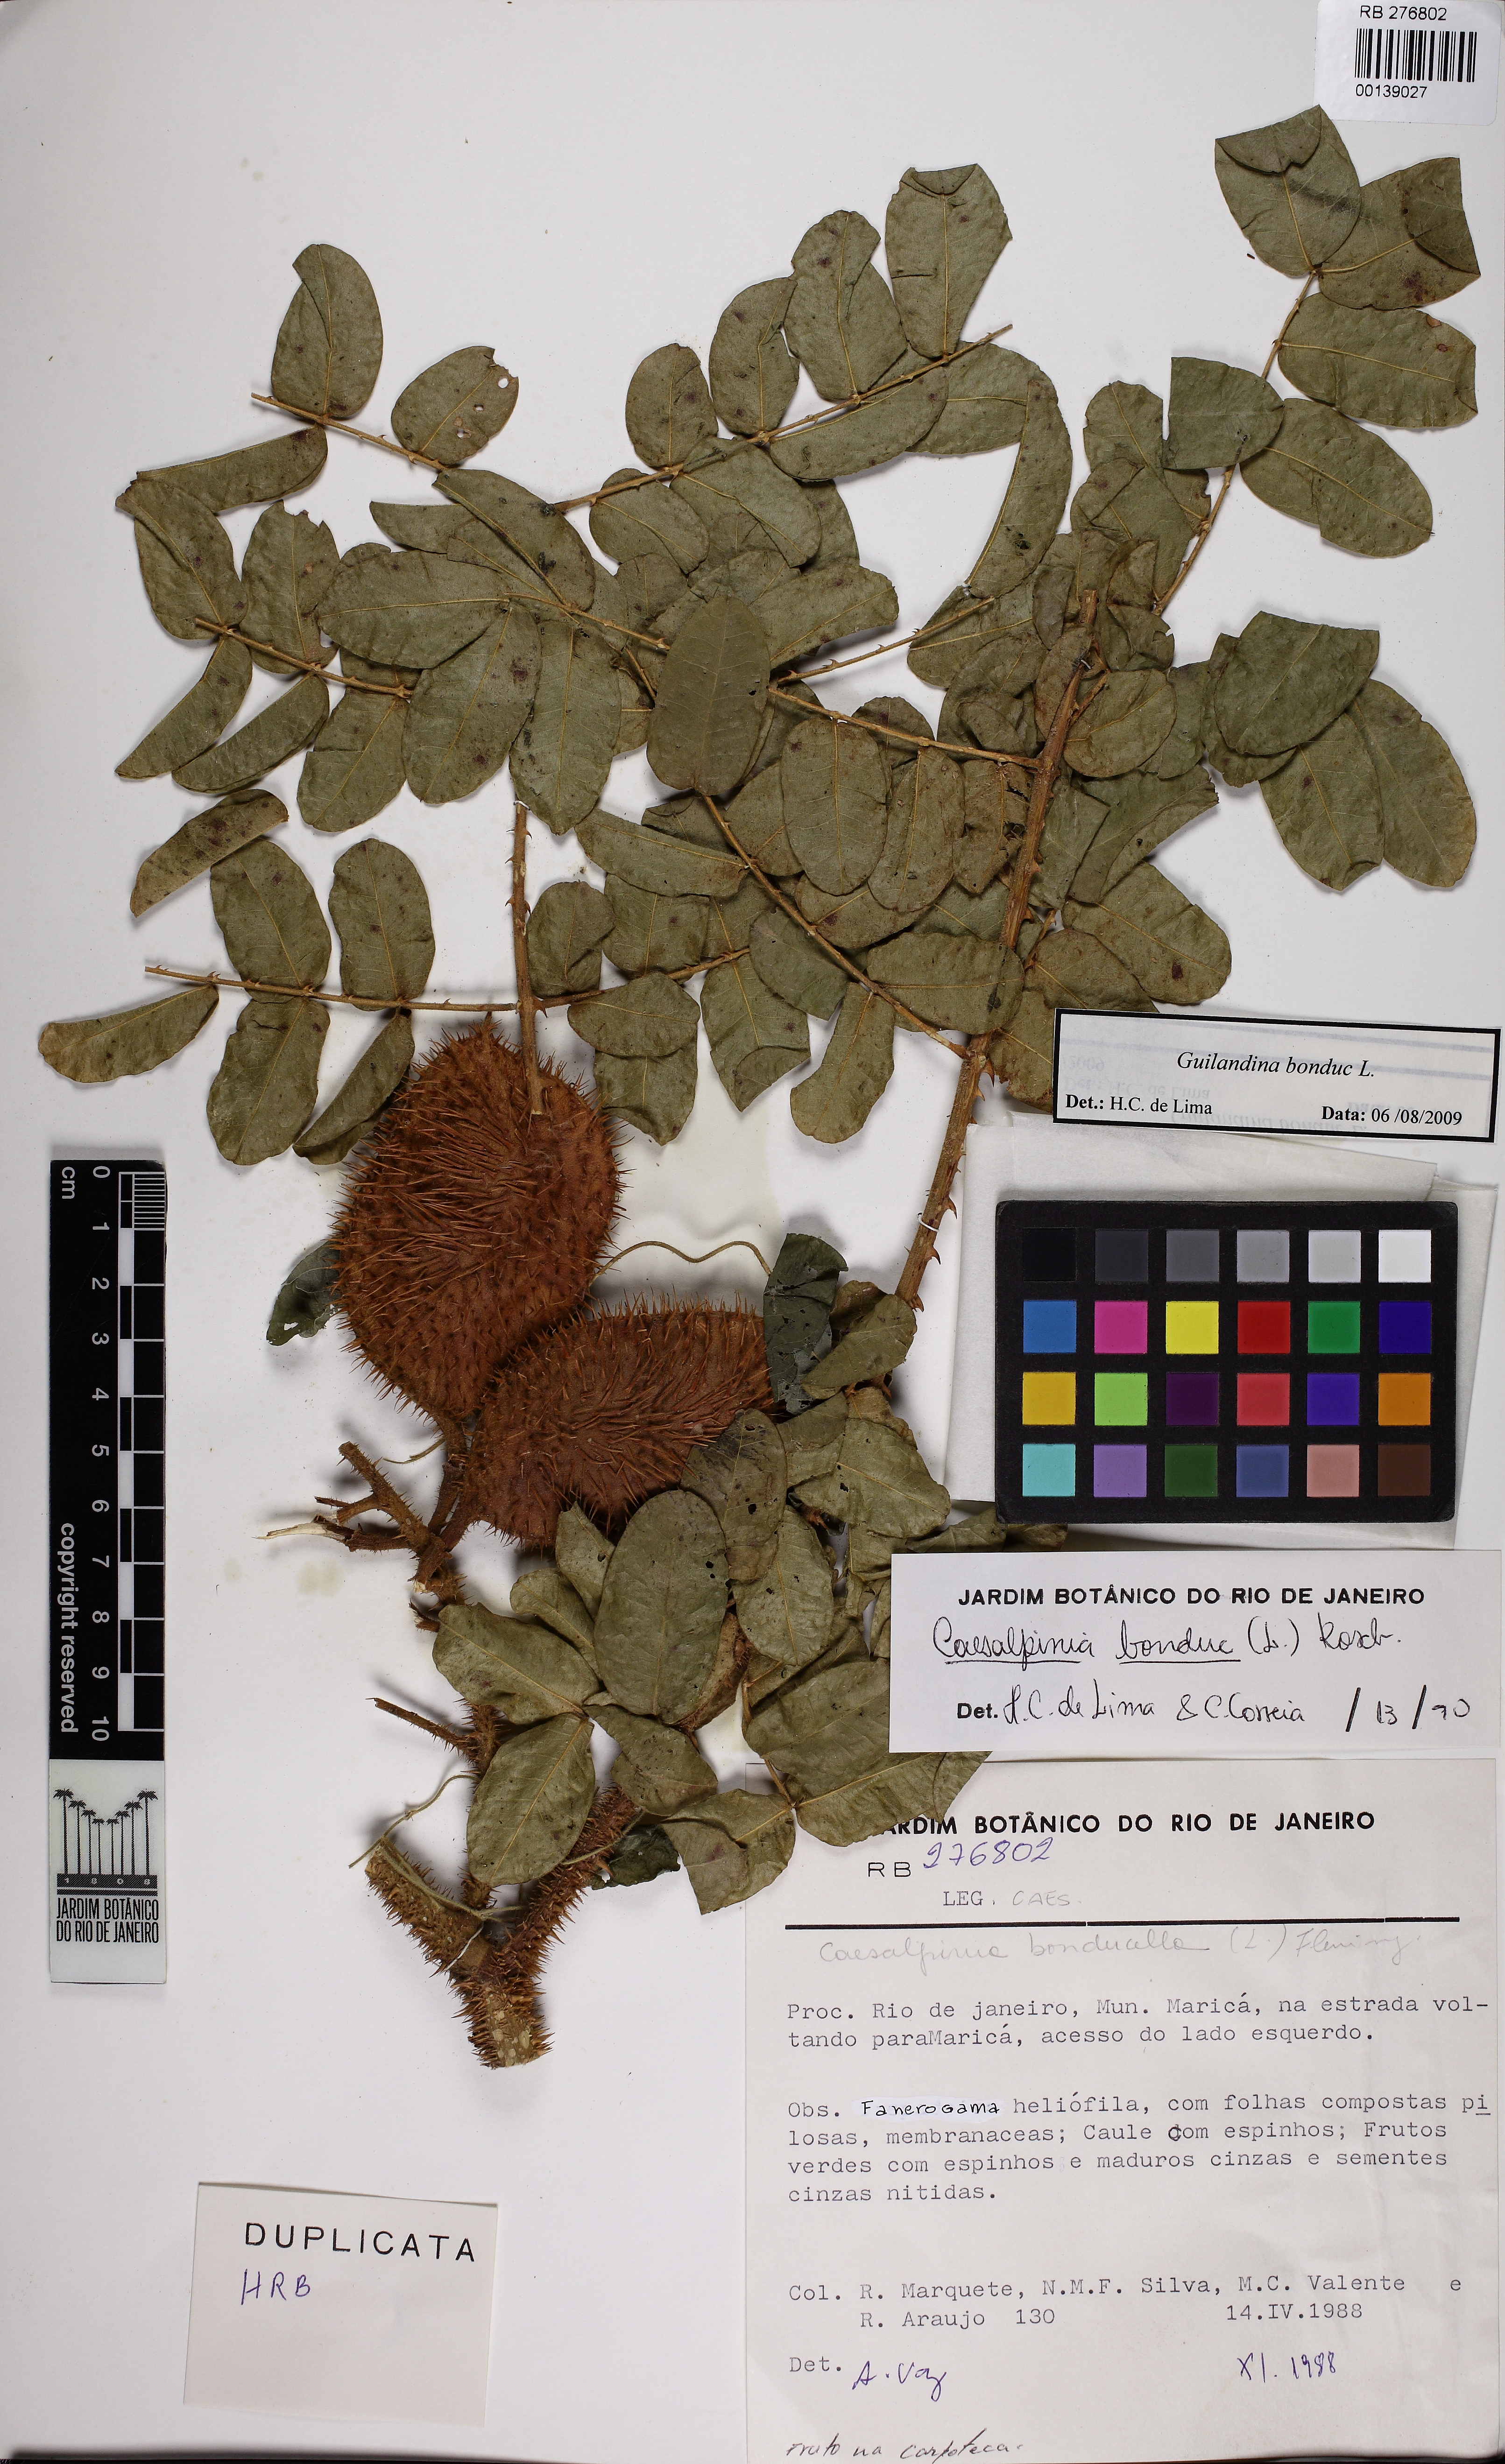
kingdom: Plantae
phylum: Tracheophyta
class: Magnoliopsida
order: Fabales
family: Fabaceae
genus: Guilandina
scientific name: Guilandina bonduc
